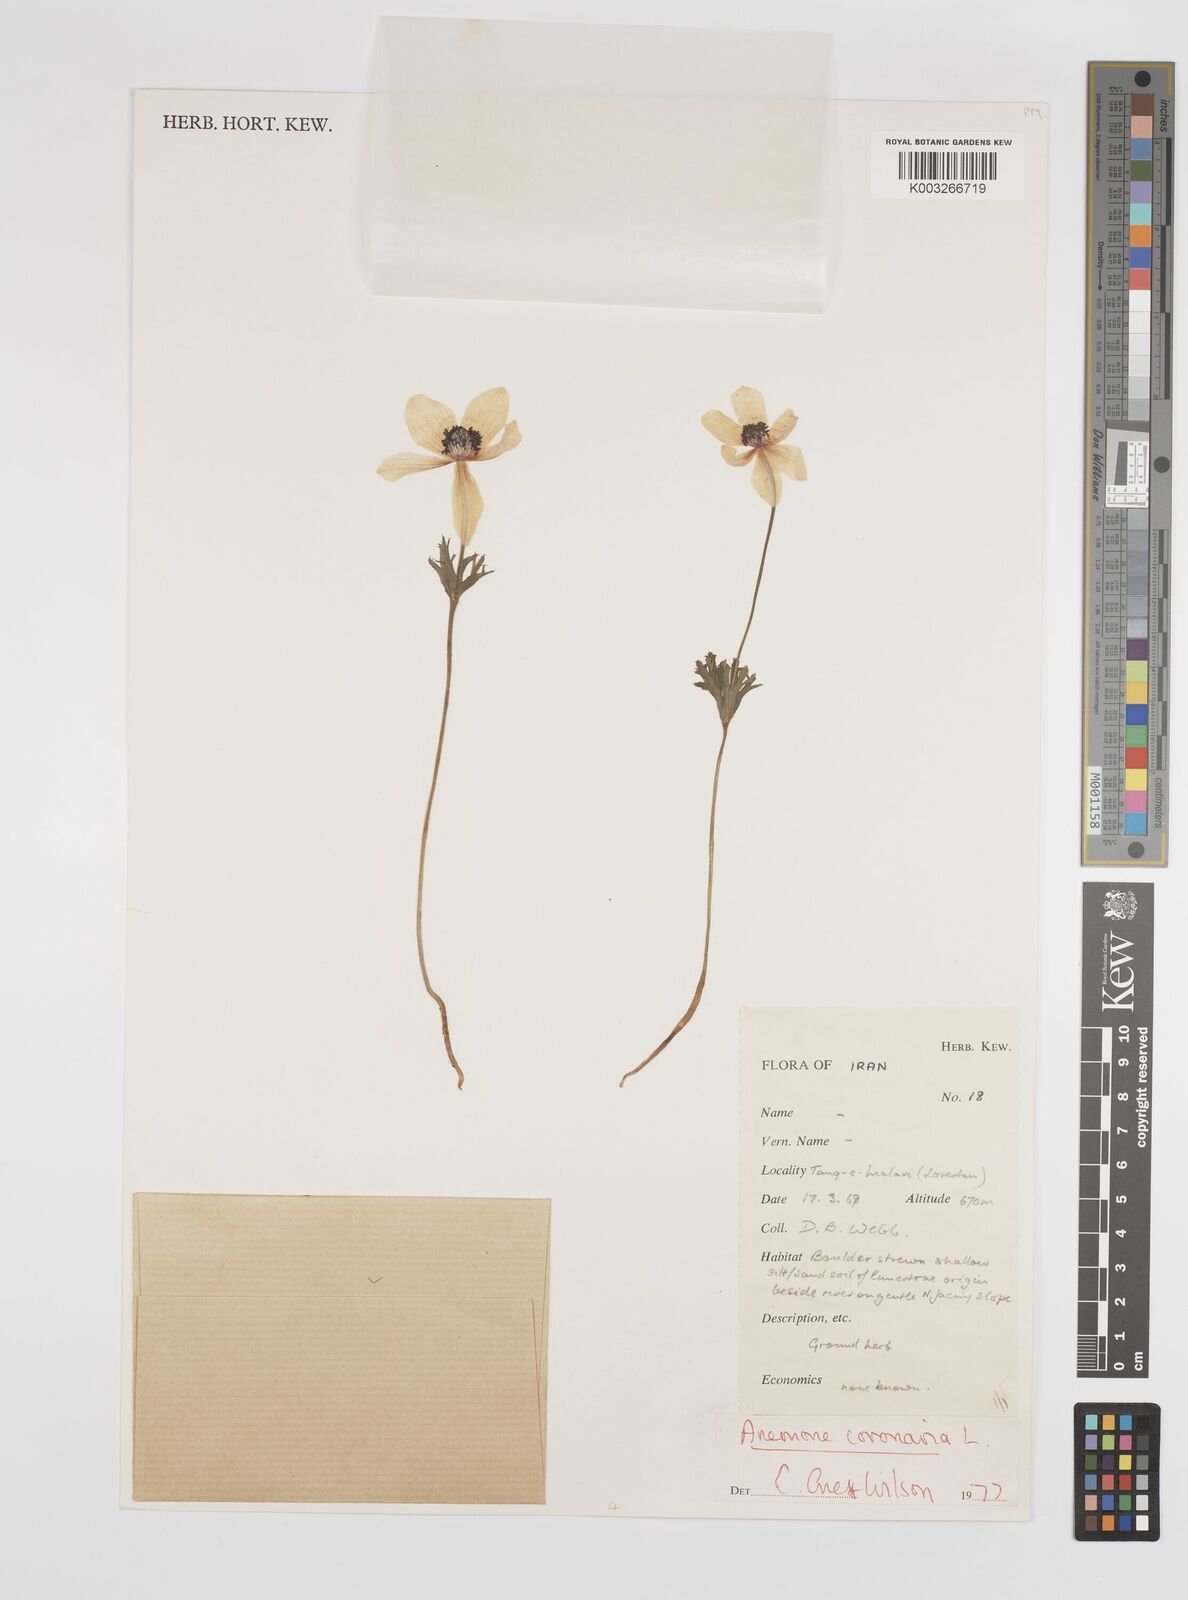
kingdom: Plantae
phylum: Tracheophyta
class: Magnoliopsida
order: Ranunculales
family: Ranunculaceae
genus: Anemone
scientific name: Anemone coronaria
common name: Poppy anemone
